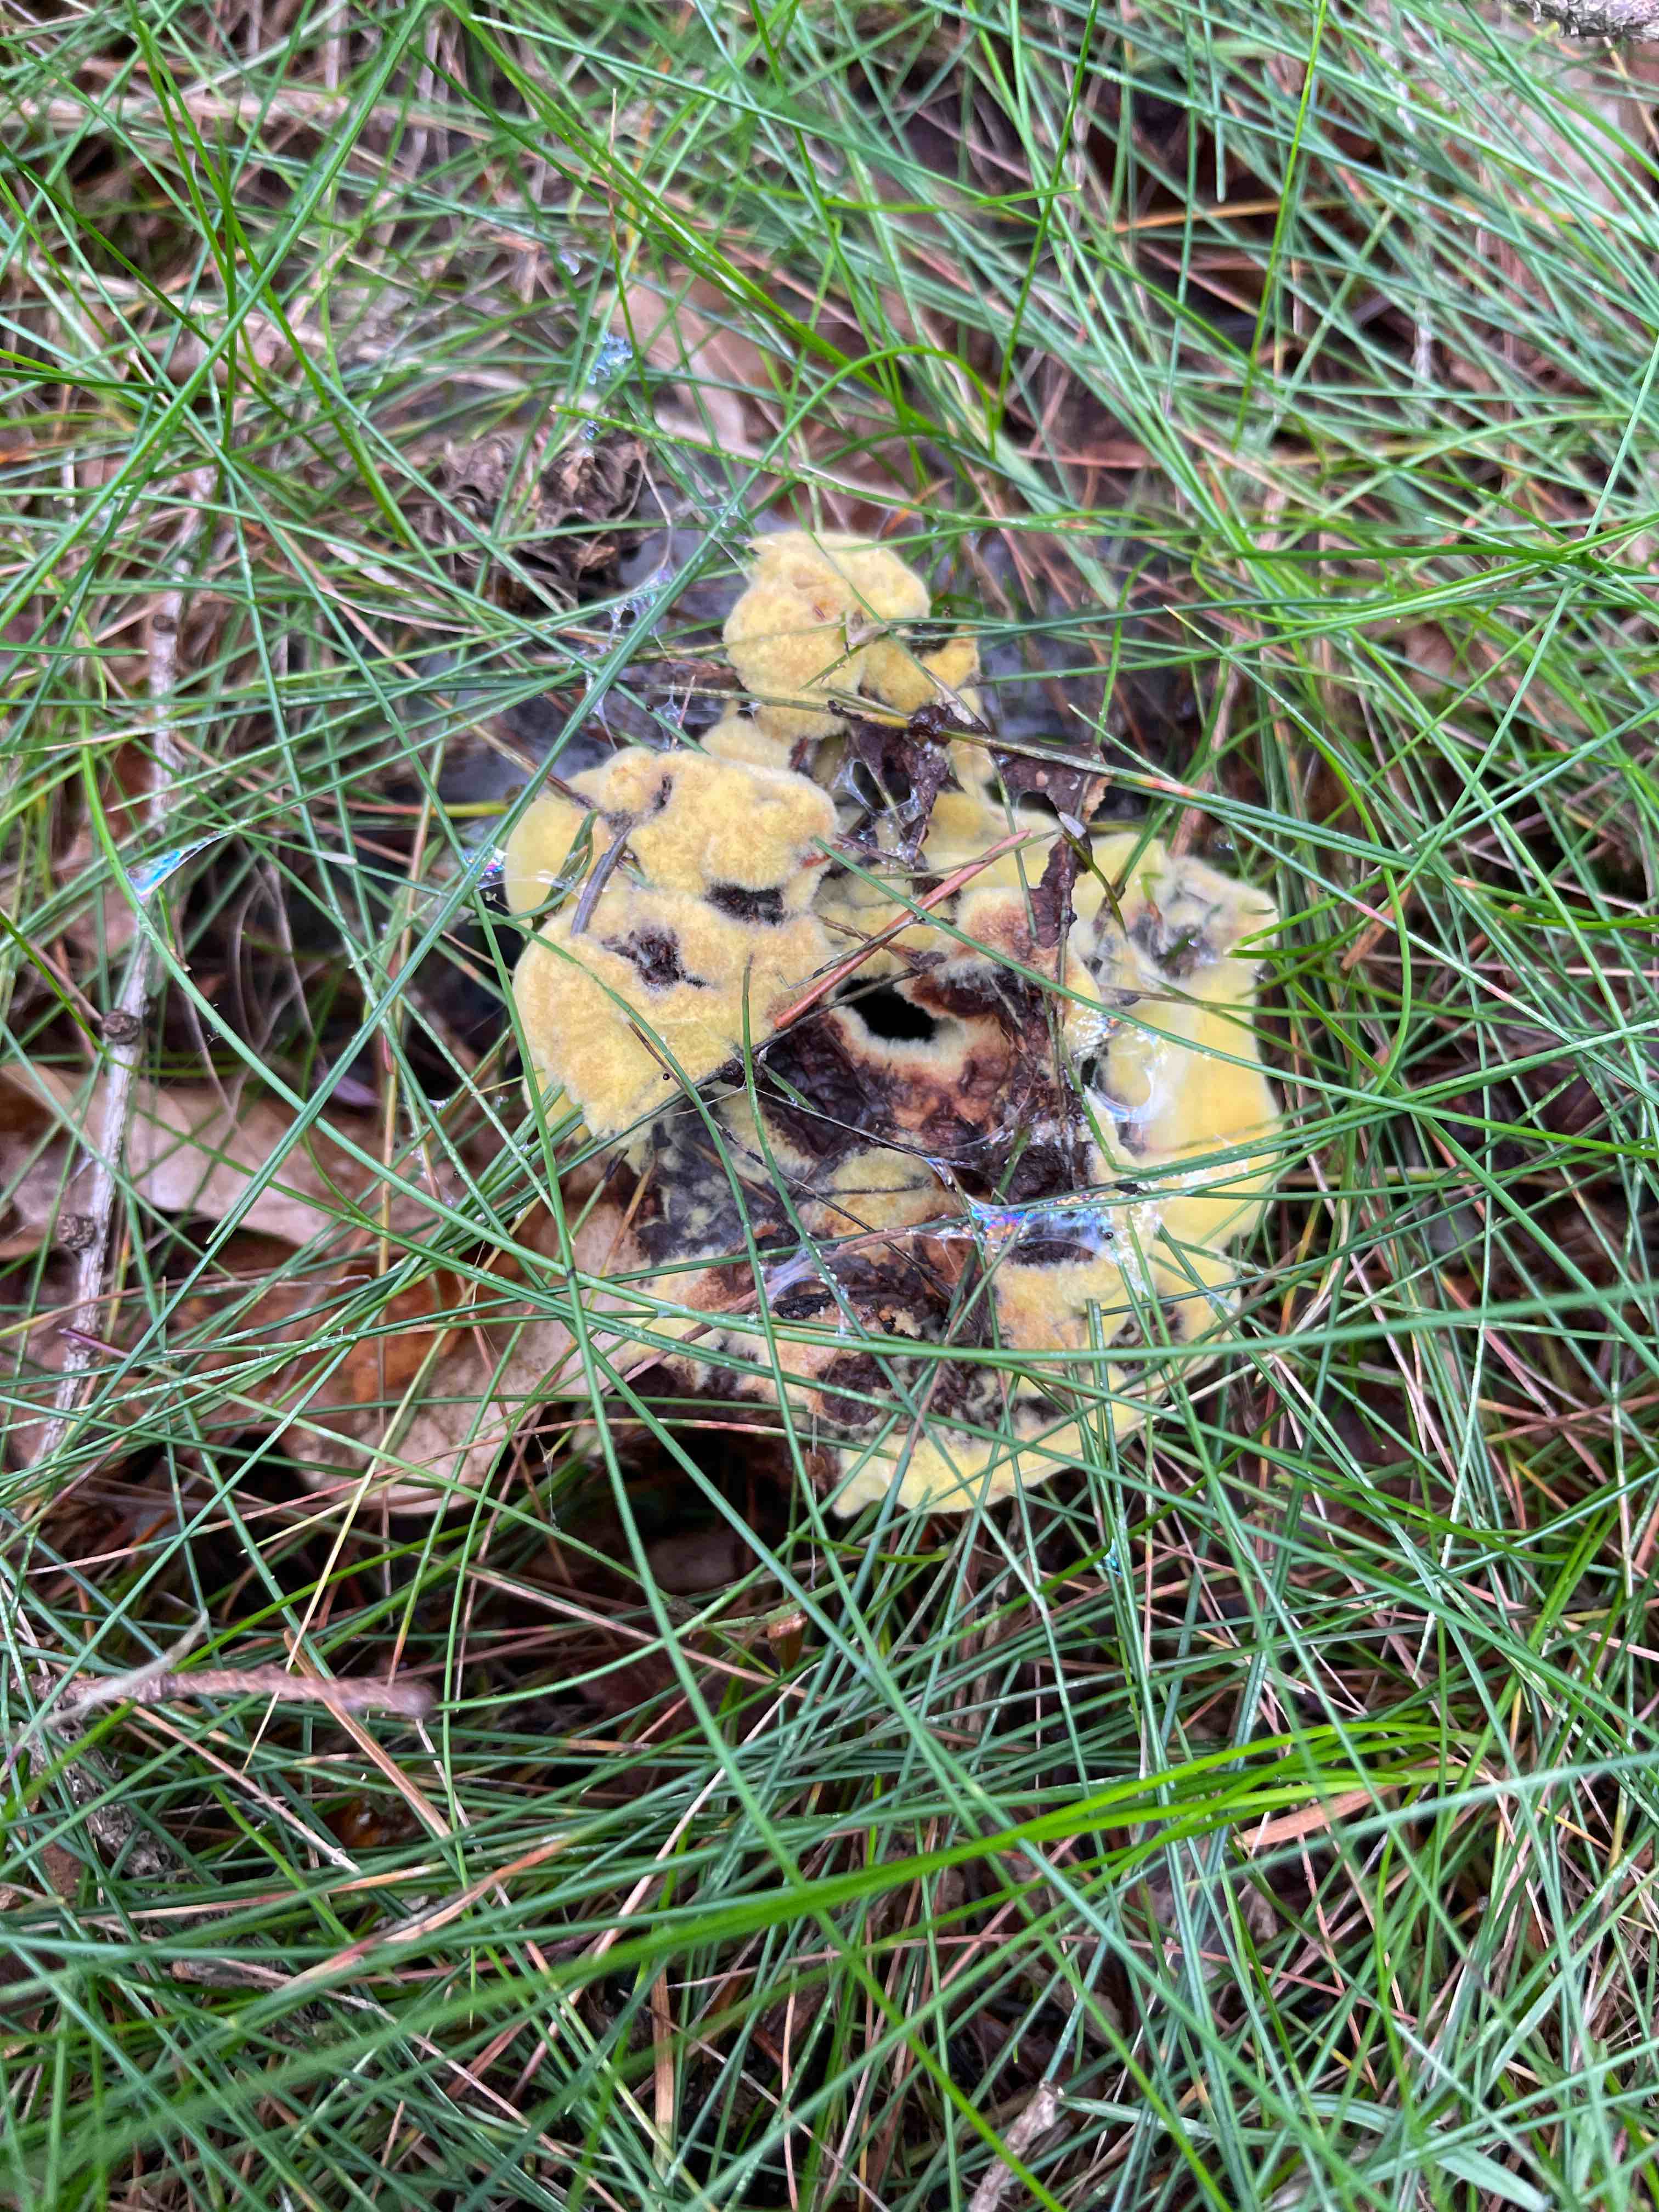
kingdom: Fungi
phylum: Basidiomycota
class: Agaricomycetes
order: Polyporales
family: Laetiporaceae
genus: Phaeolus
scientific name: Phaeolus schweinitzii
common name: brunporesvamp
